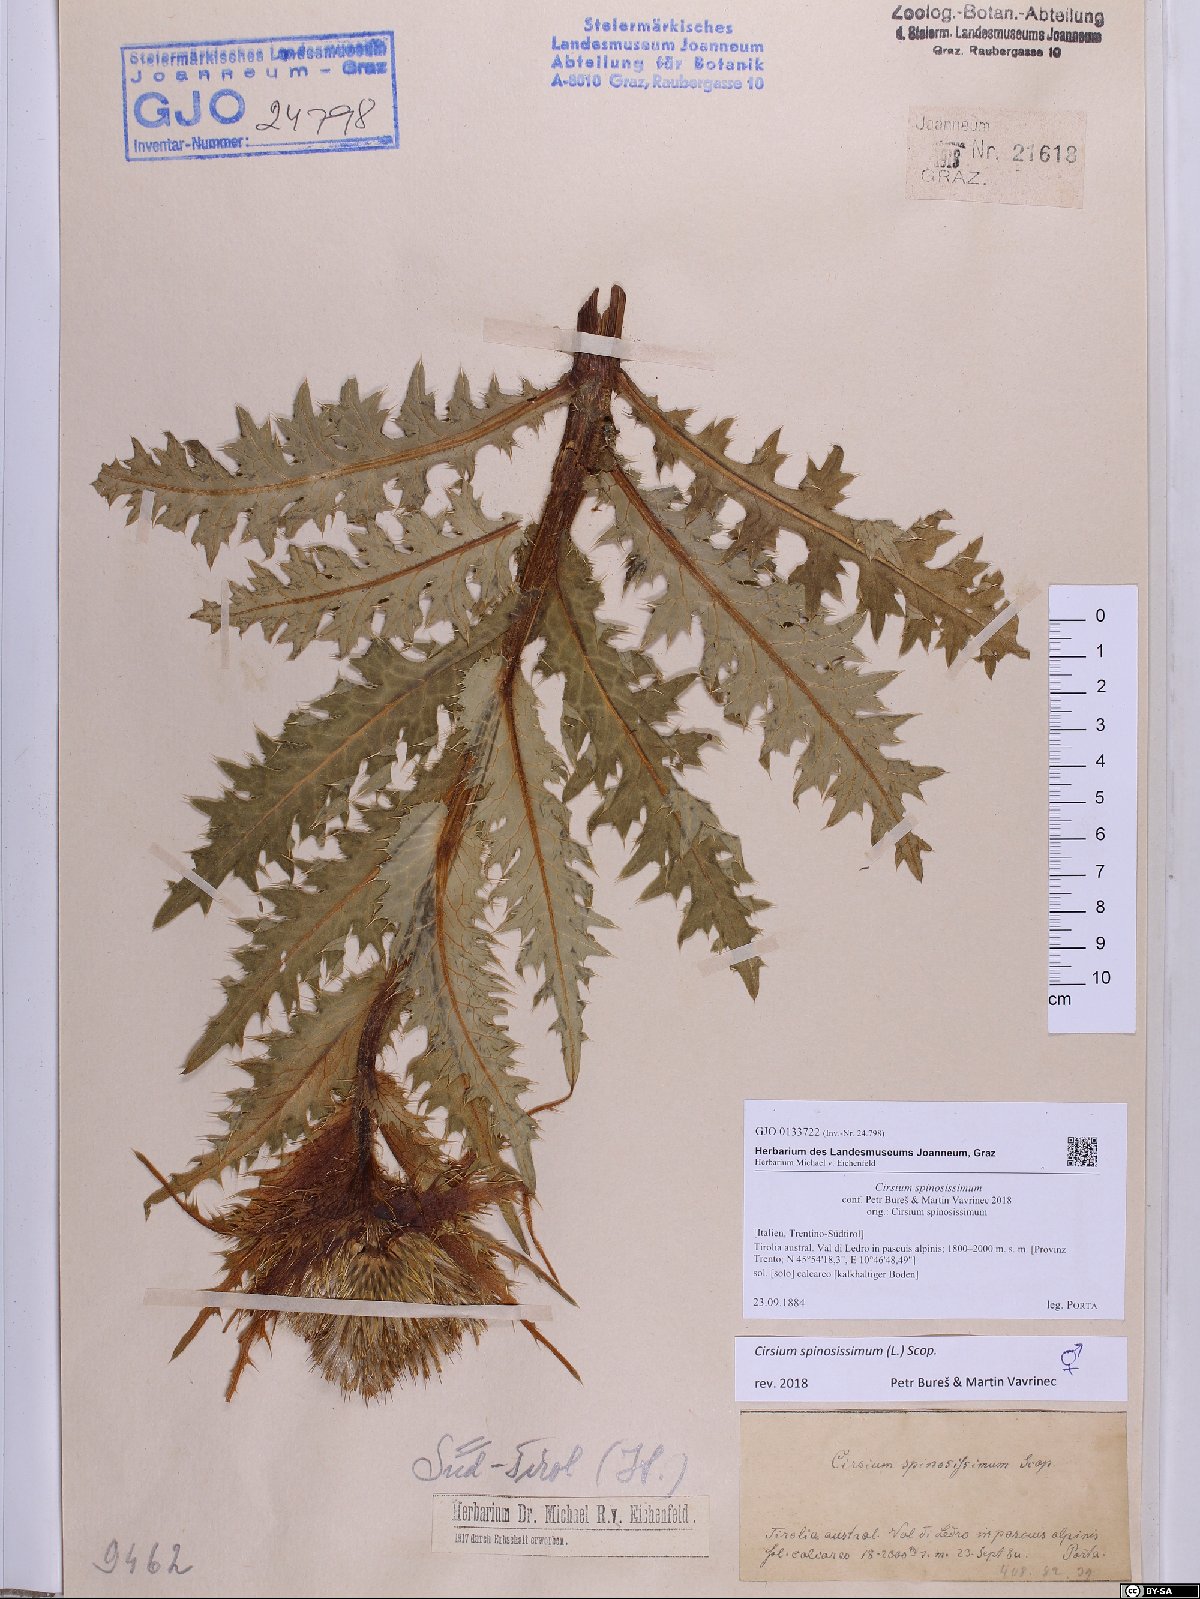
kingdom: Plantae
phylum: Tracheophyta
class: Magnoliopsida
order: Asterales
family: Asteraceae
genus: Cirsium
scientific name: Cirsium spinosissimum
